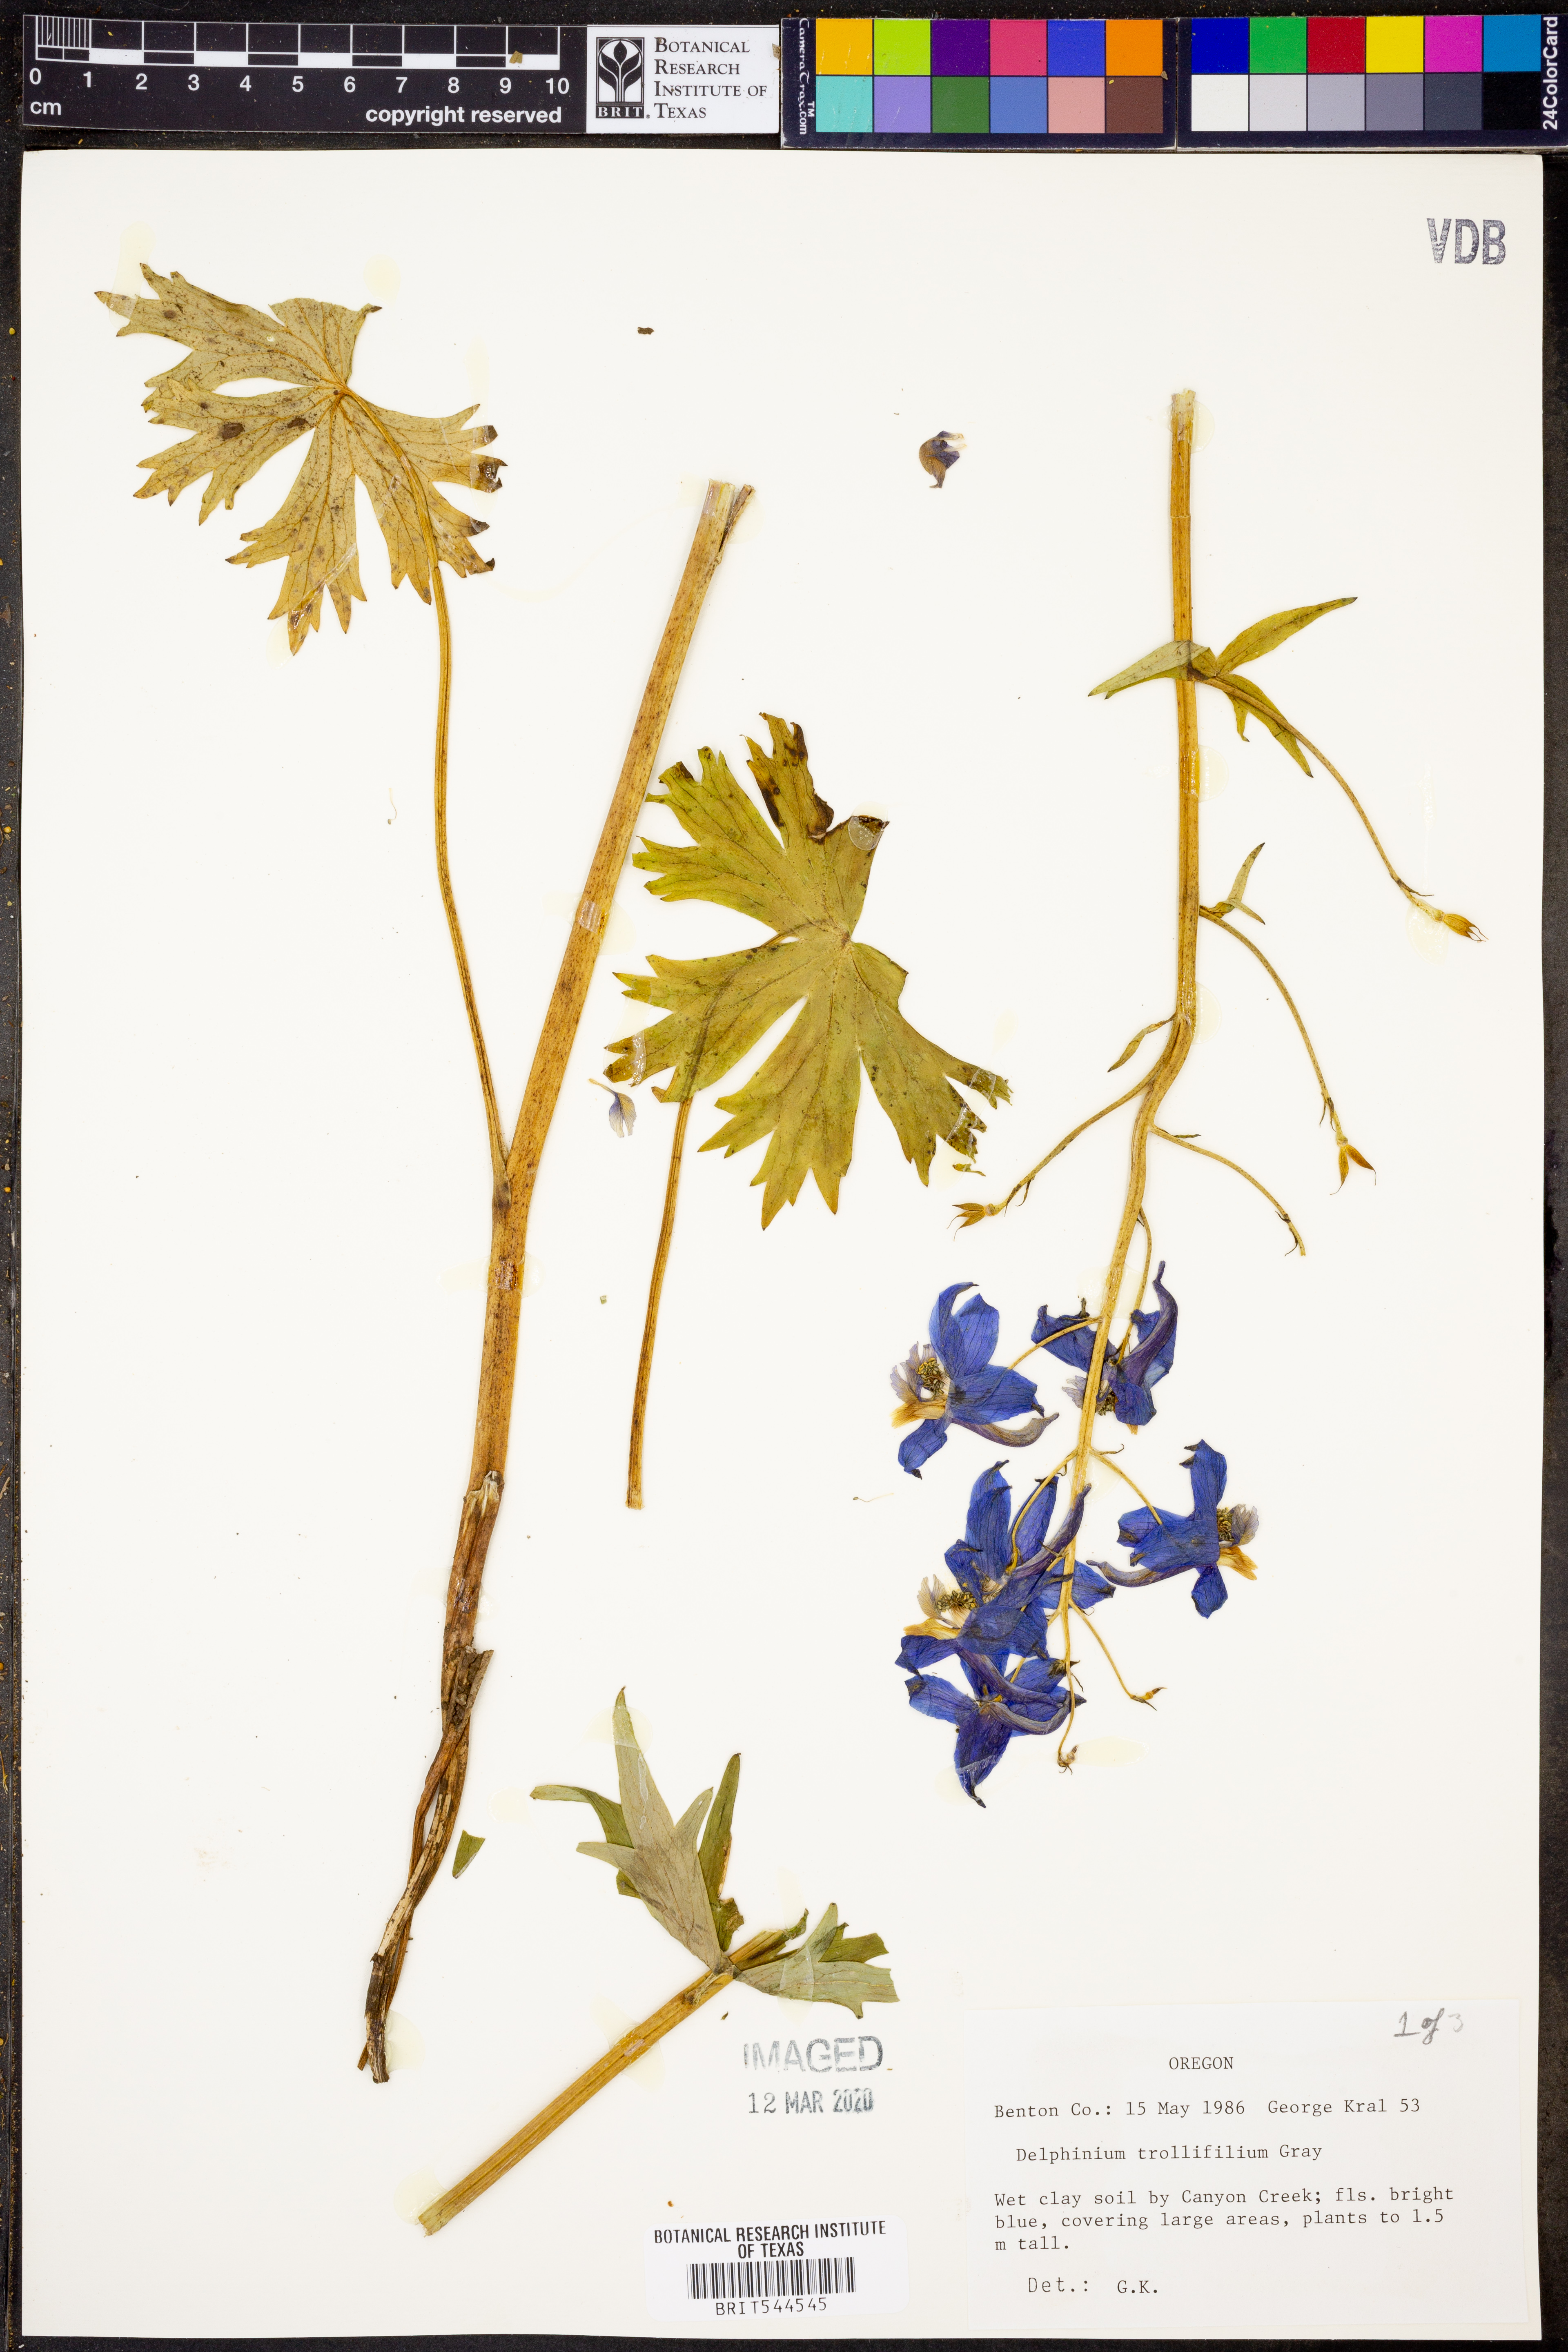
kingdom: Plantae
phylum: Tracheophyta
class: Magnoliopsida
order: Ranunculales
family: Ranunculaceae
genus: Delphinium
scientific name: Delphinium trolliifolium
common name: Cow-poison
